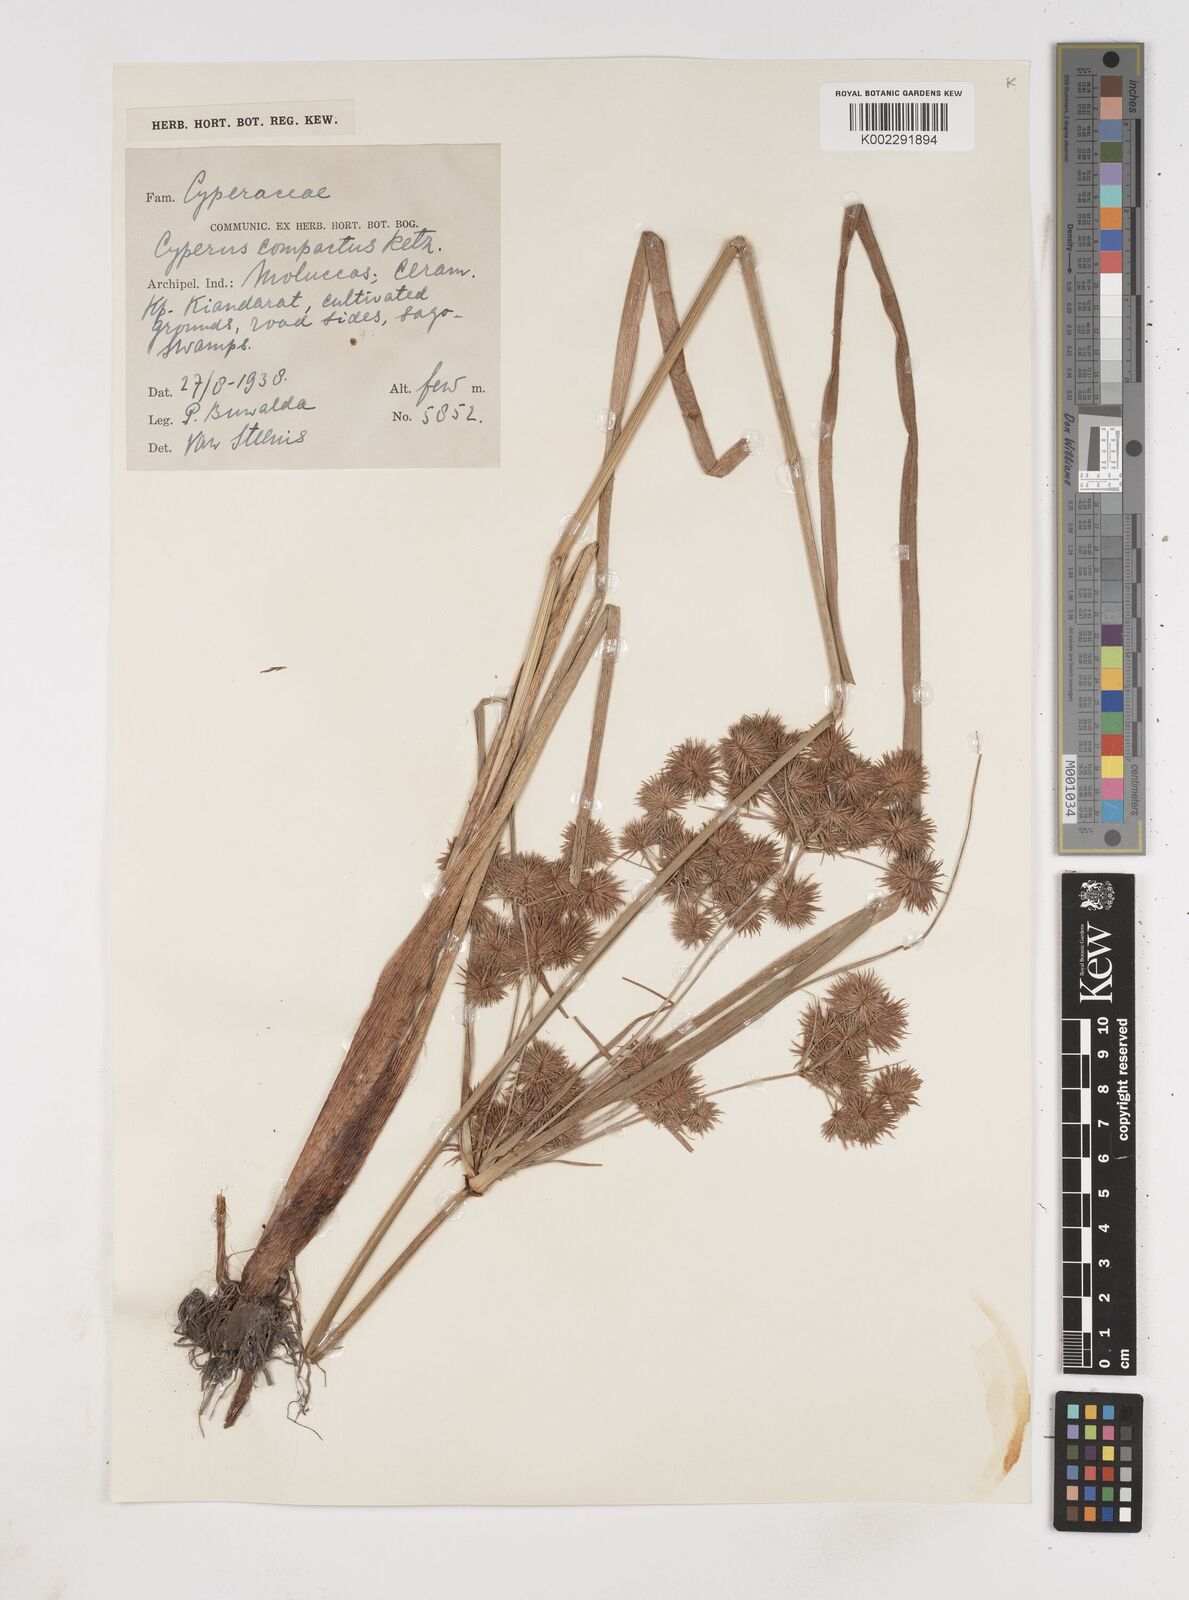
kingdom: Plantae
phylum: Tracheophyta
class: Liliopsida
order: Poales
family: Cyperaceae
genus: Cyperus
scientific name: Cyperus compactus
